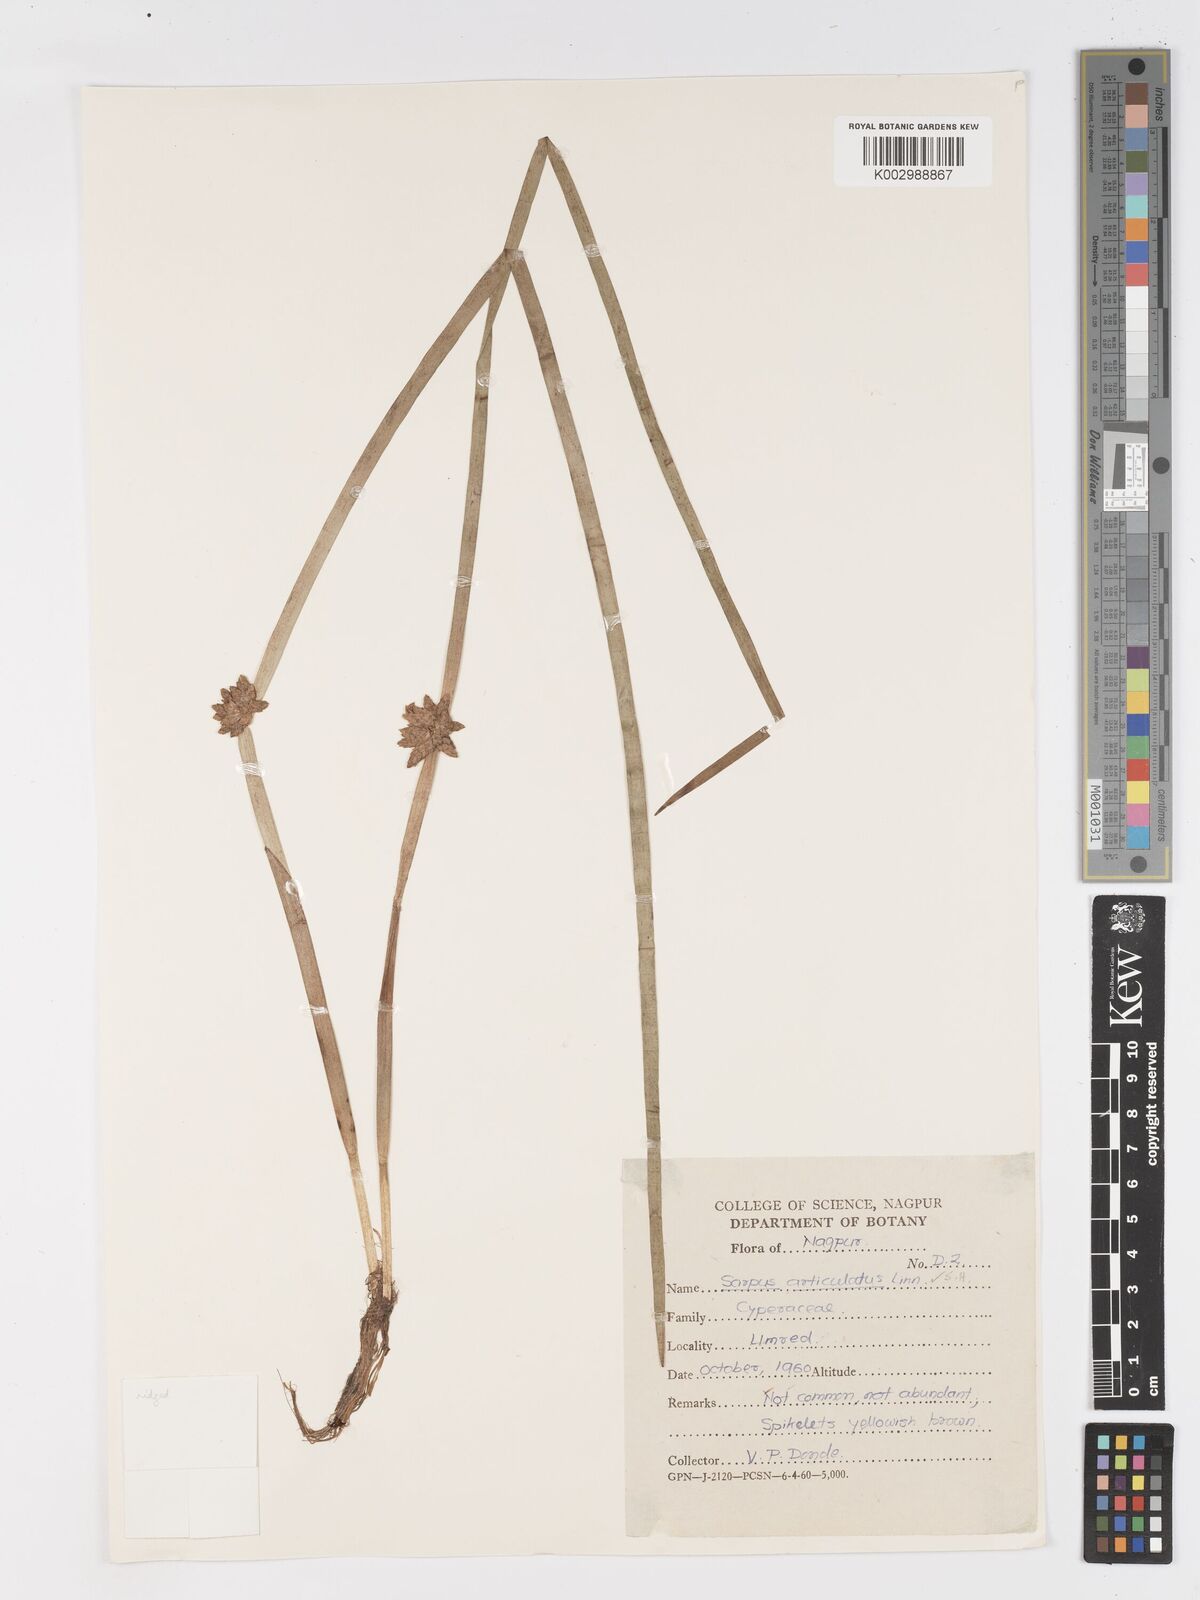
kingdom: Plantae
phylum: Tracheophyta
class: Liliopsida
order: Poales
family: Cyperaceae
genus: Schoenoplectiella
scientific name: Schoenoplectiella praelongata
